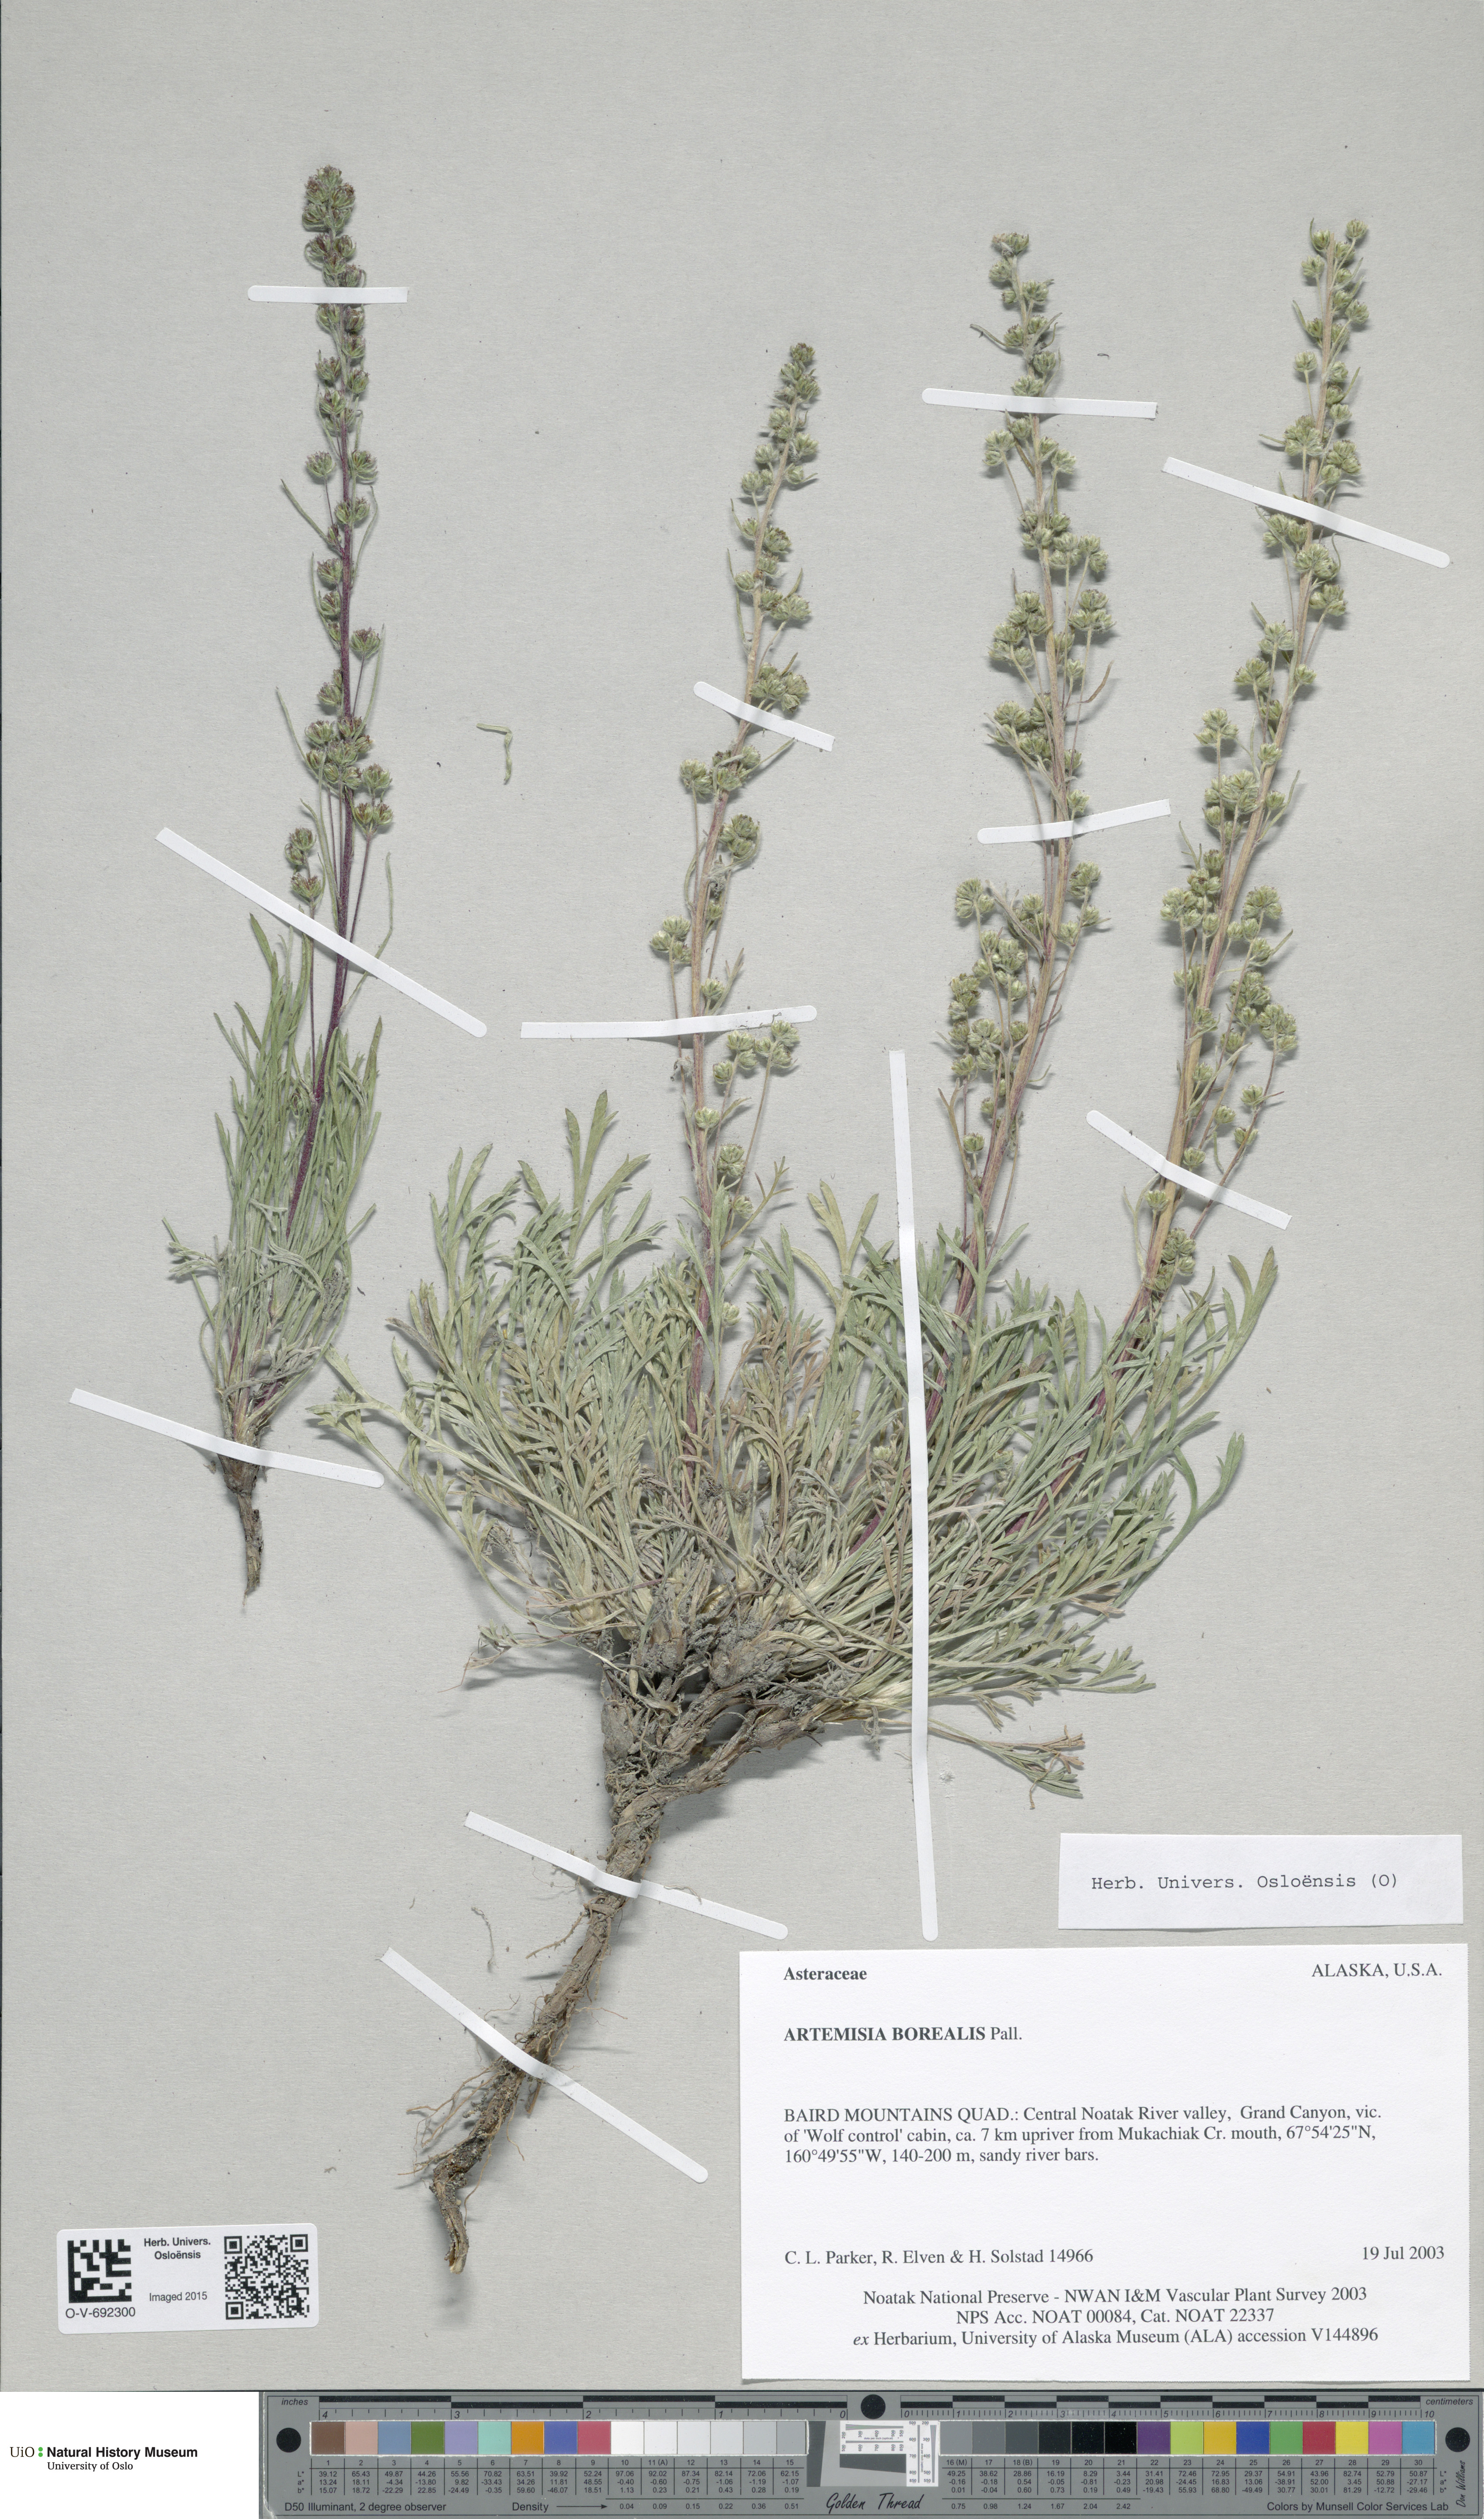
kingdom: Plantae
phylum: Tracheophyta
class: Magnoliopsida
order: Asterales
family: Asteraceae
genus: Artemisia
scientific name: Artemisia borealis
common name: Boreal sage
